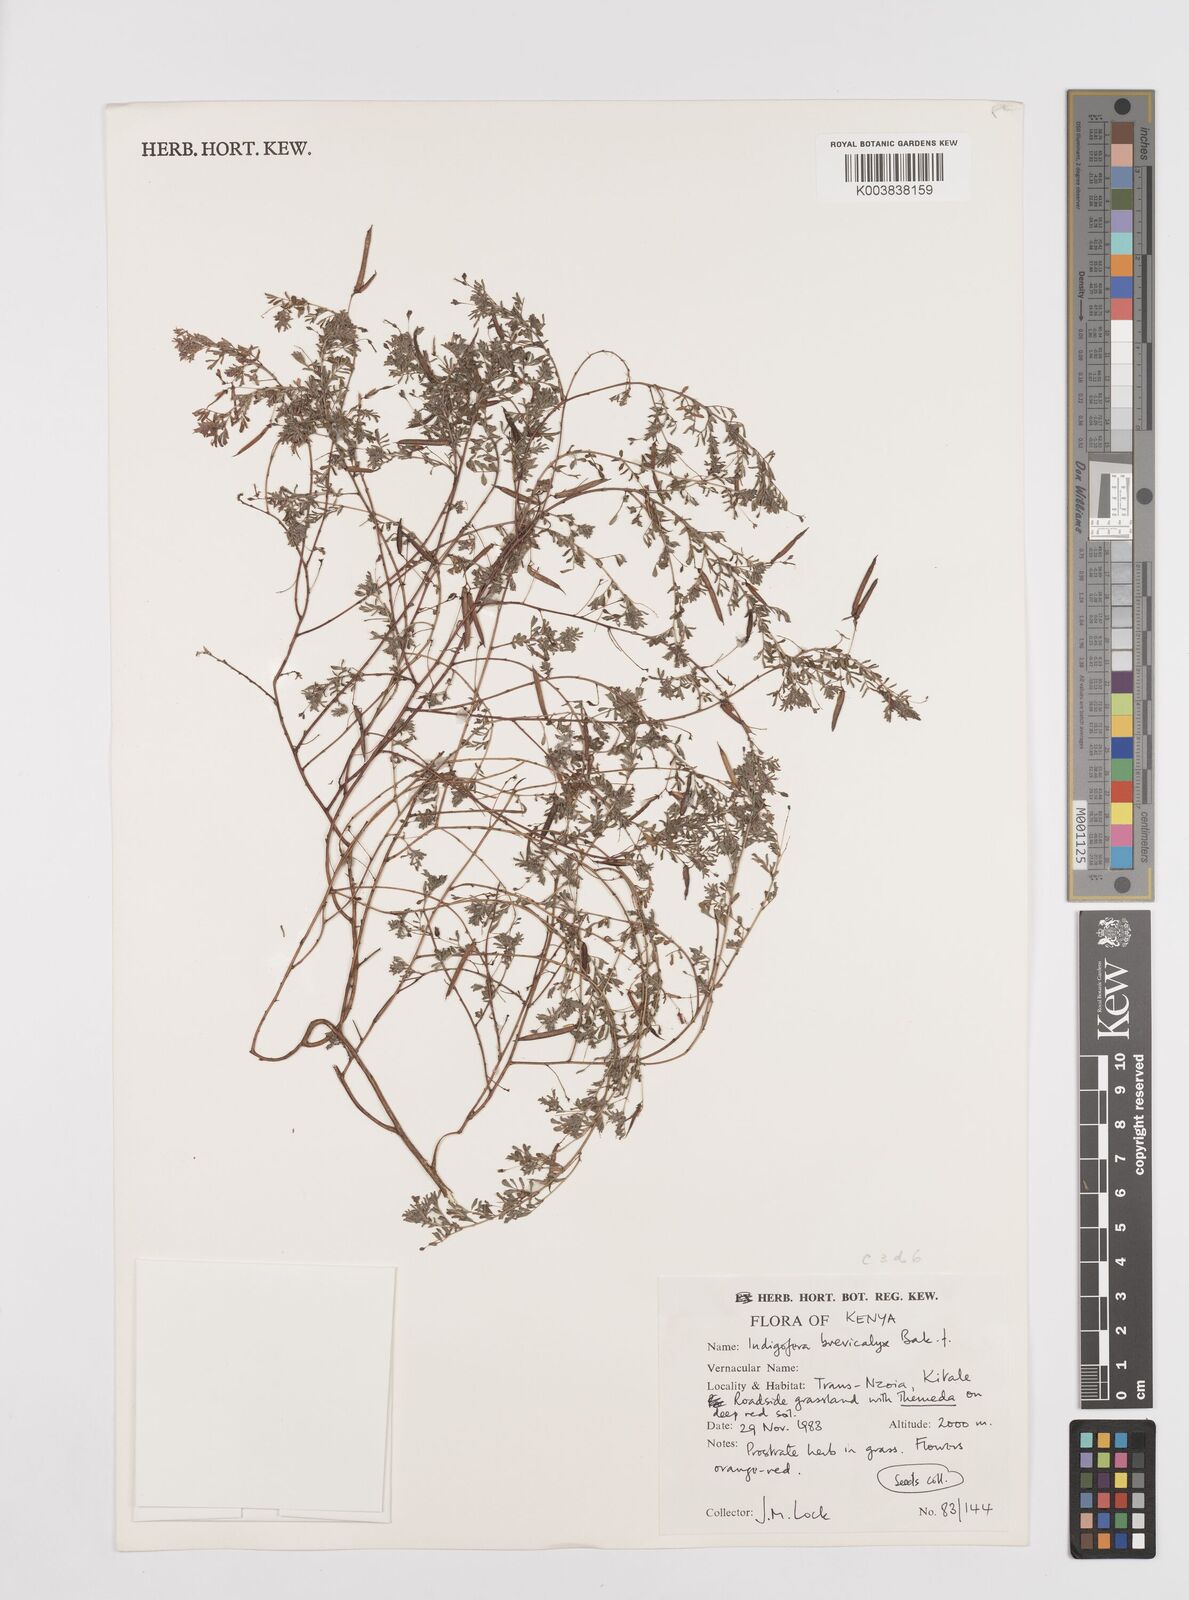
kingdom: Plantae
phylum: Tracheophyta
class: Magnoliopsida
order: Fabales
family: Fabaceae
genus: Indigofera
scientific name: Indigofera brevicalyx
